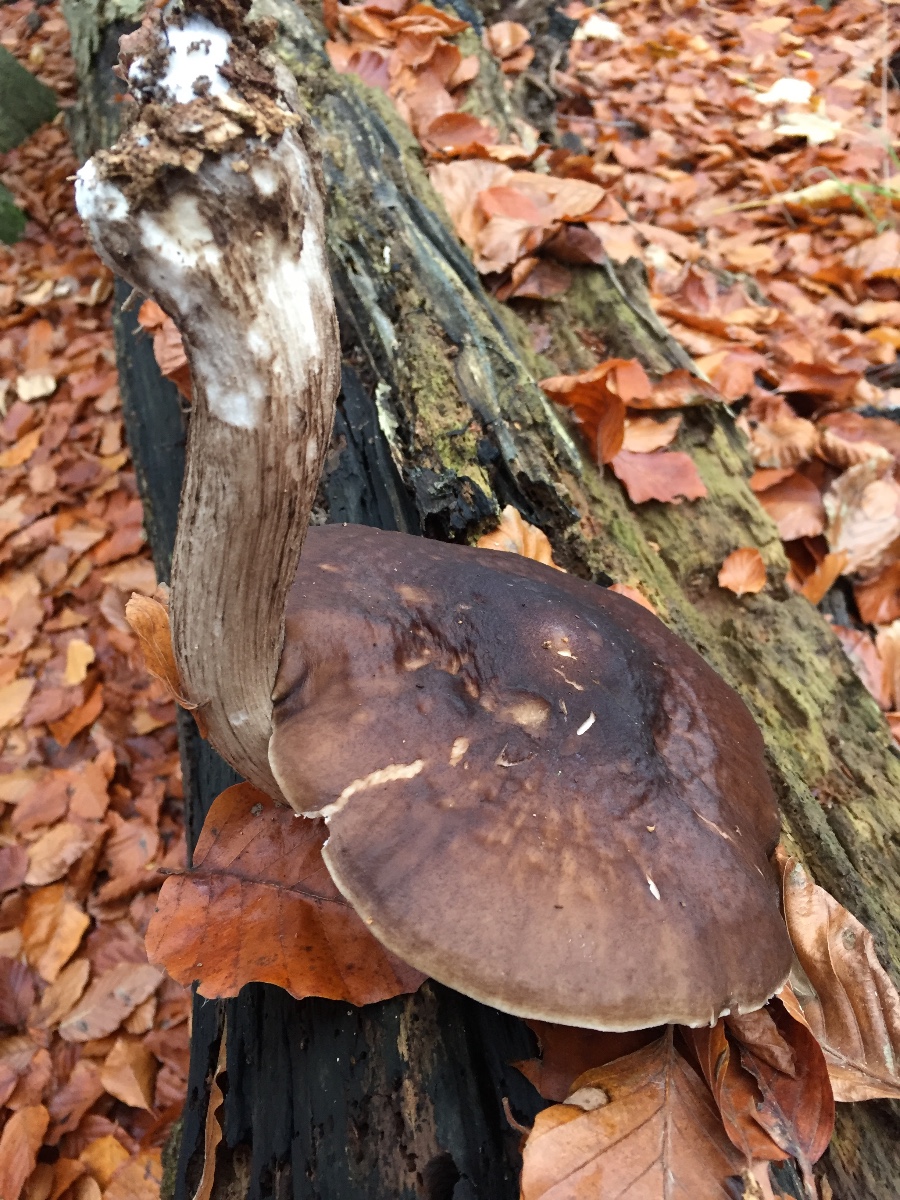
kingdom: Fungi
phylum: Basidiomycota
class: Agaricomycetes
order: Agaricales
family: Pluteaceae
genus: Pluteus
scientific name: Pluteus cervinus
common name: sodfarvet skærmhat
